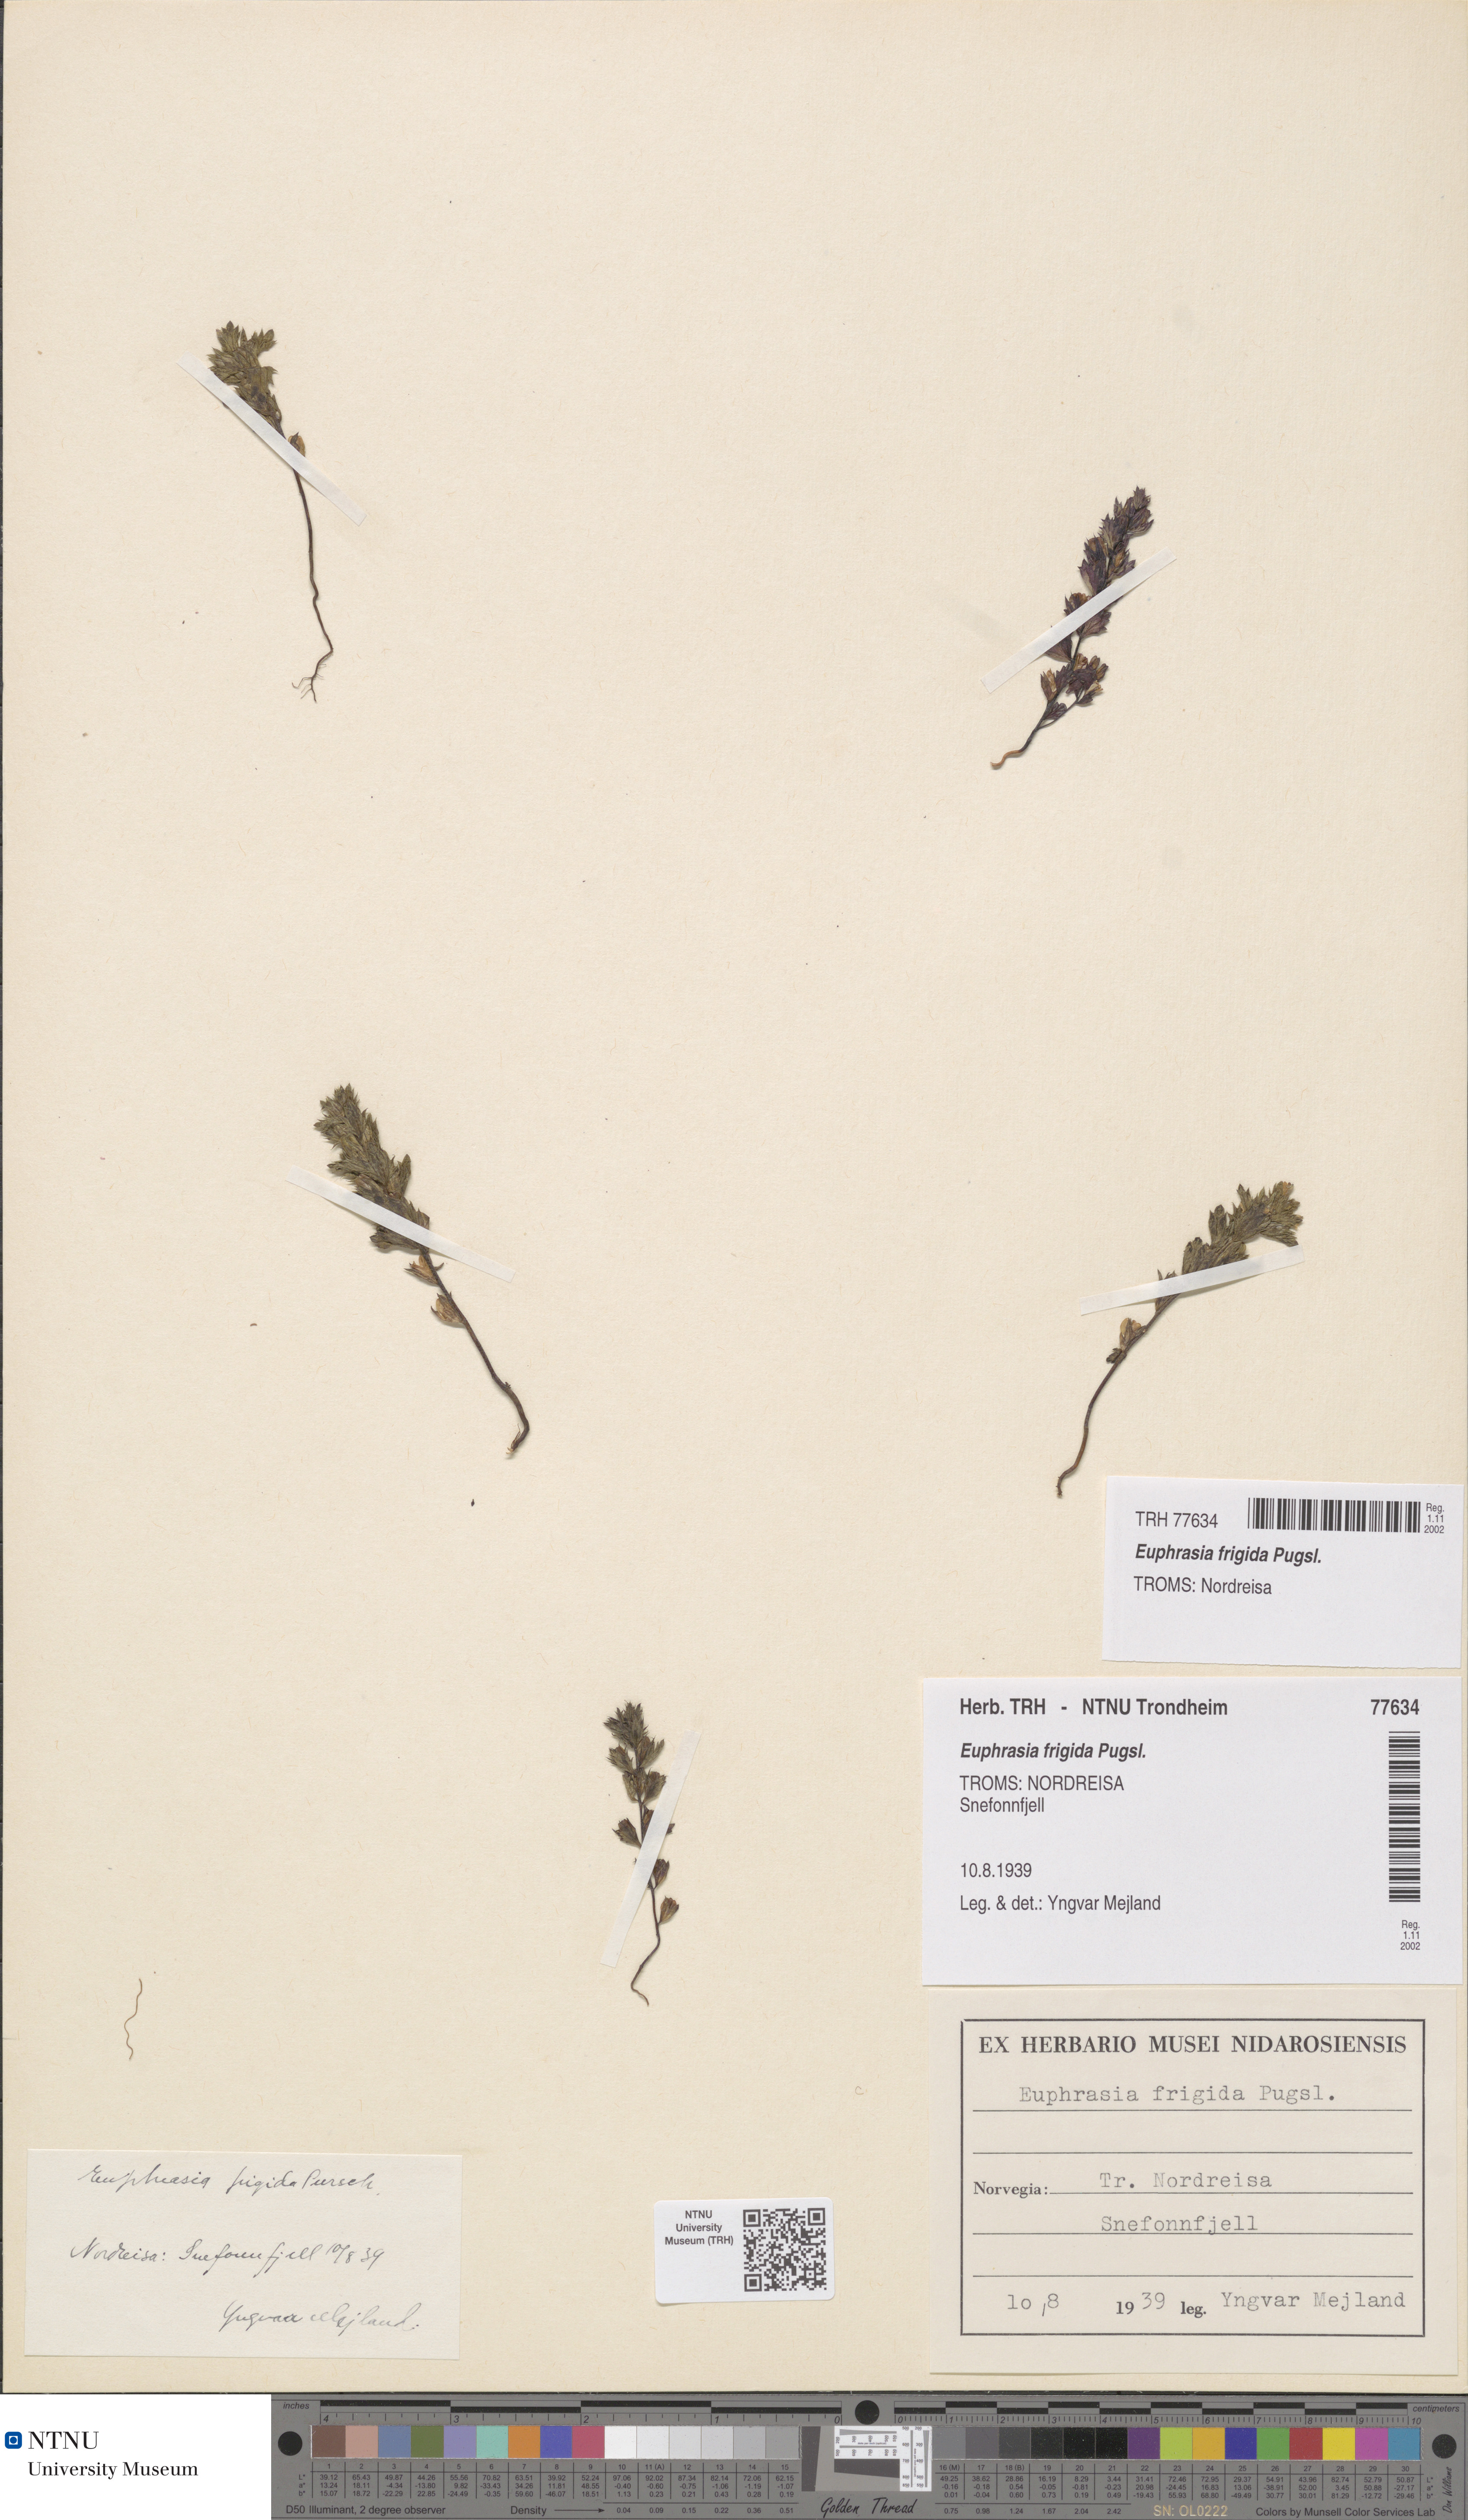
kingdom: Plantae
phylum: Tracheophyta
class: Magnoliopsida
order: Lamiales
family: Orobanchaceae
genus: Euphrasia
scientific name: Euphrasia wettsteinii
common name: Wettstein's eyebright
